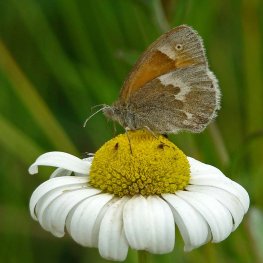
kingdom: Animalia
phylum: Arthropoda
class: Insecta
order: Lepidoptera
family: Nymphalidae
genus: Coenonympha
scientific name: Coenonympha tullia
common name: Large Heath
